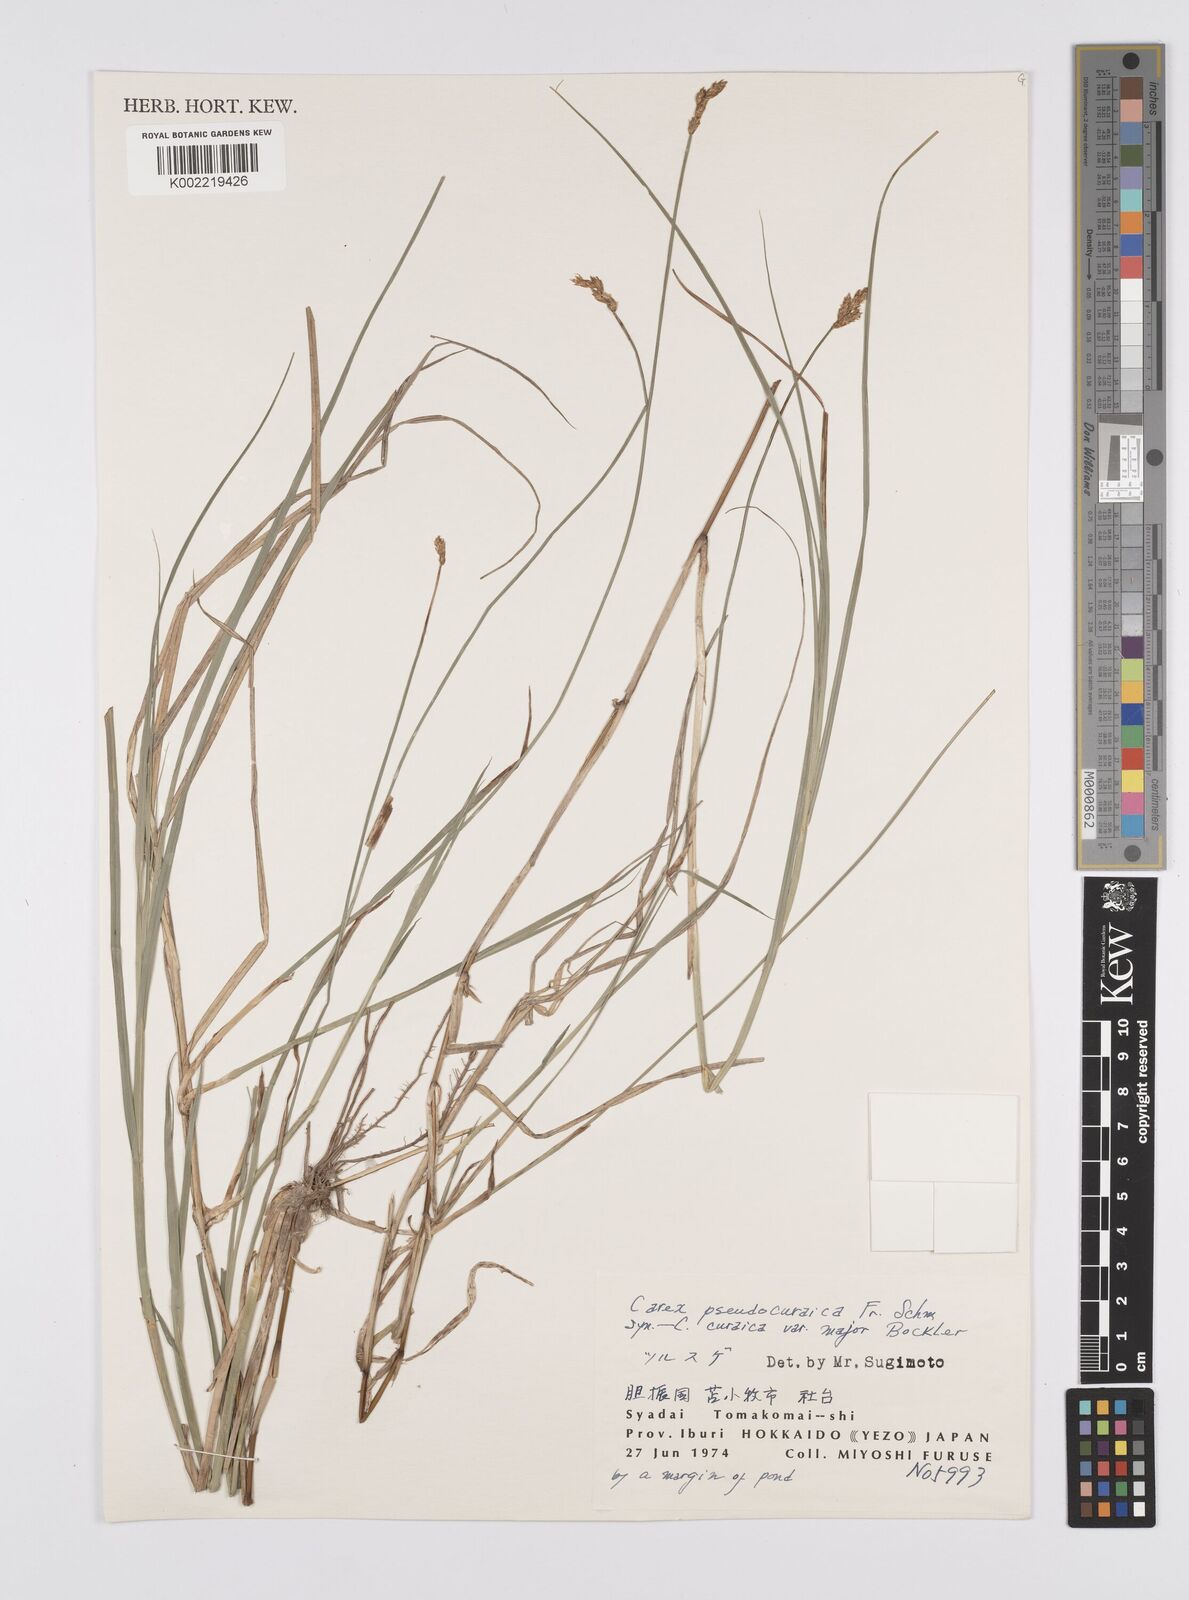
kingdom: Plantae
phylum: Tracheophyta
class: Liliopsida
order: Poales
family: Cyperaceae
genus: Carex
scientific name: Carex pseudocuraica
